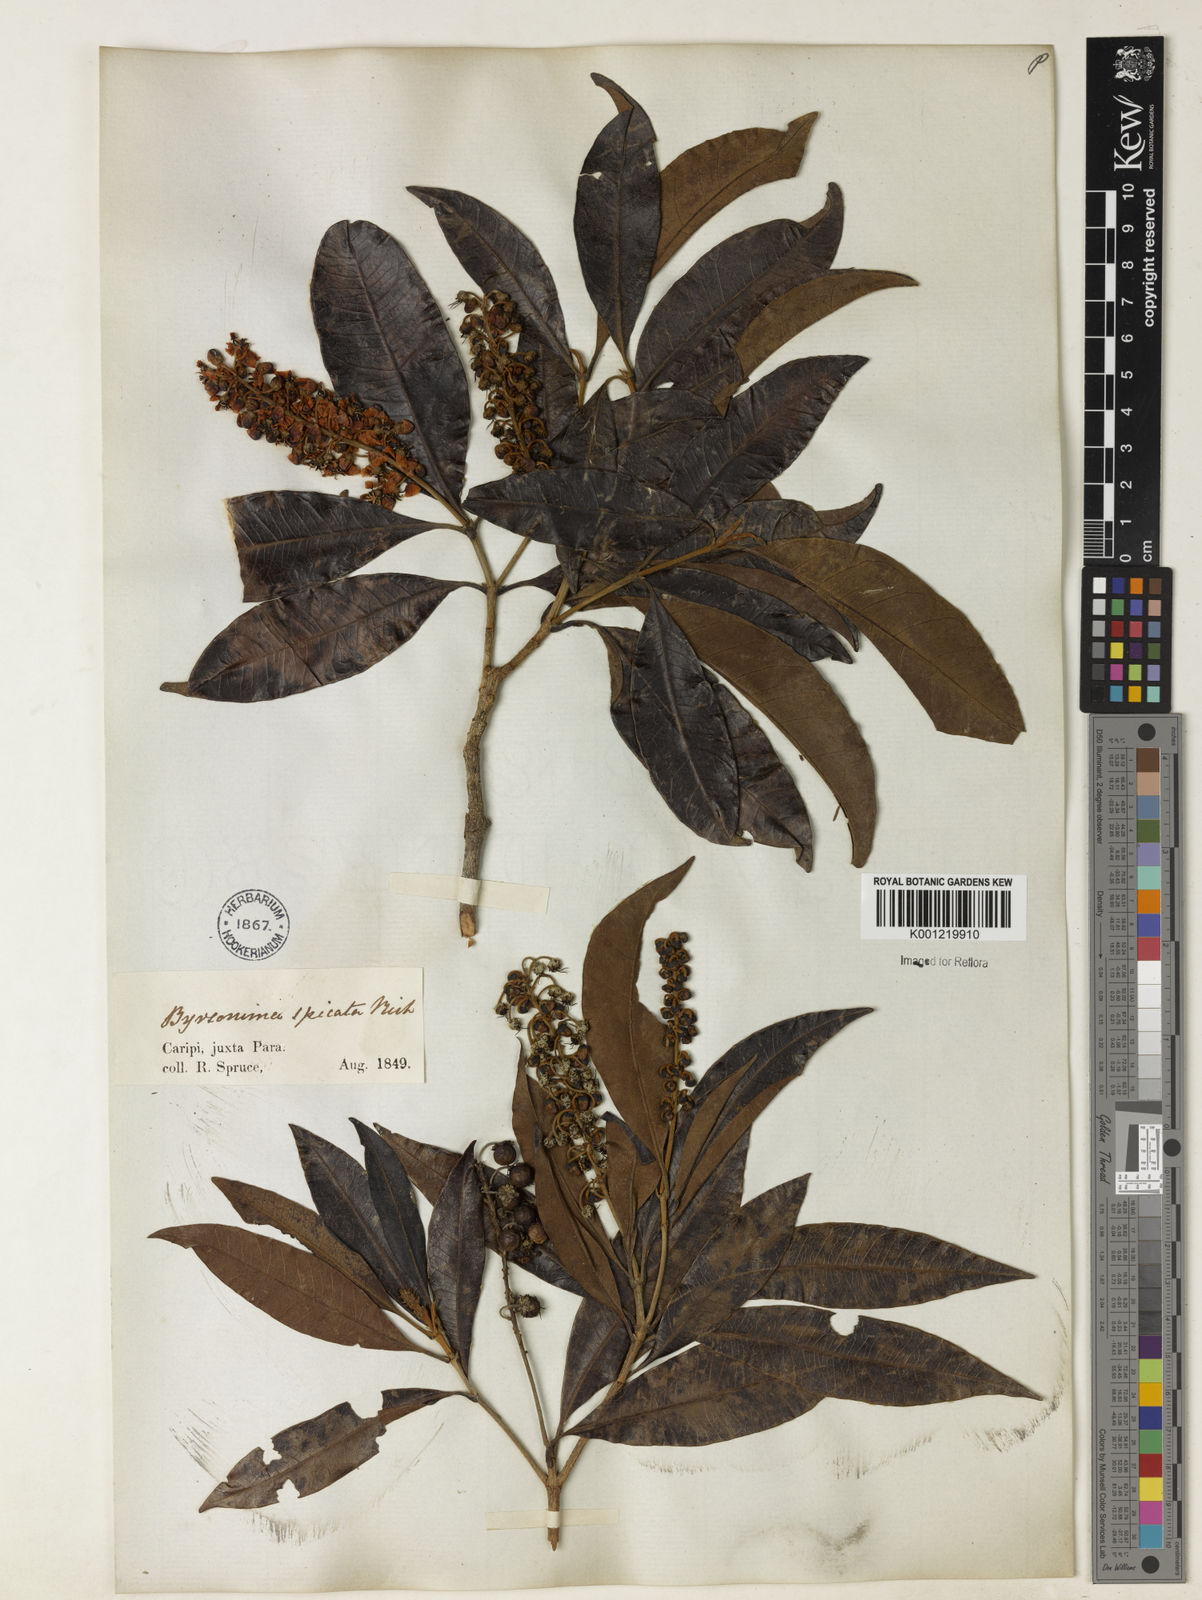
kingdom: Plantae
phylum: Tracheophyta
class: Magnoliopsida
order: Malpighiales
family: Malpighiaceae
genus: Byrsonima
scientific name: Byrsonima
